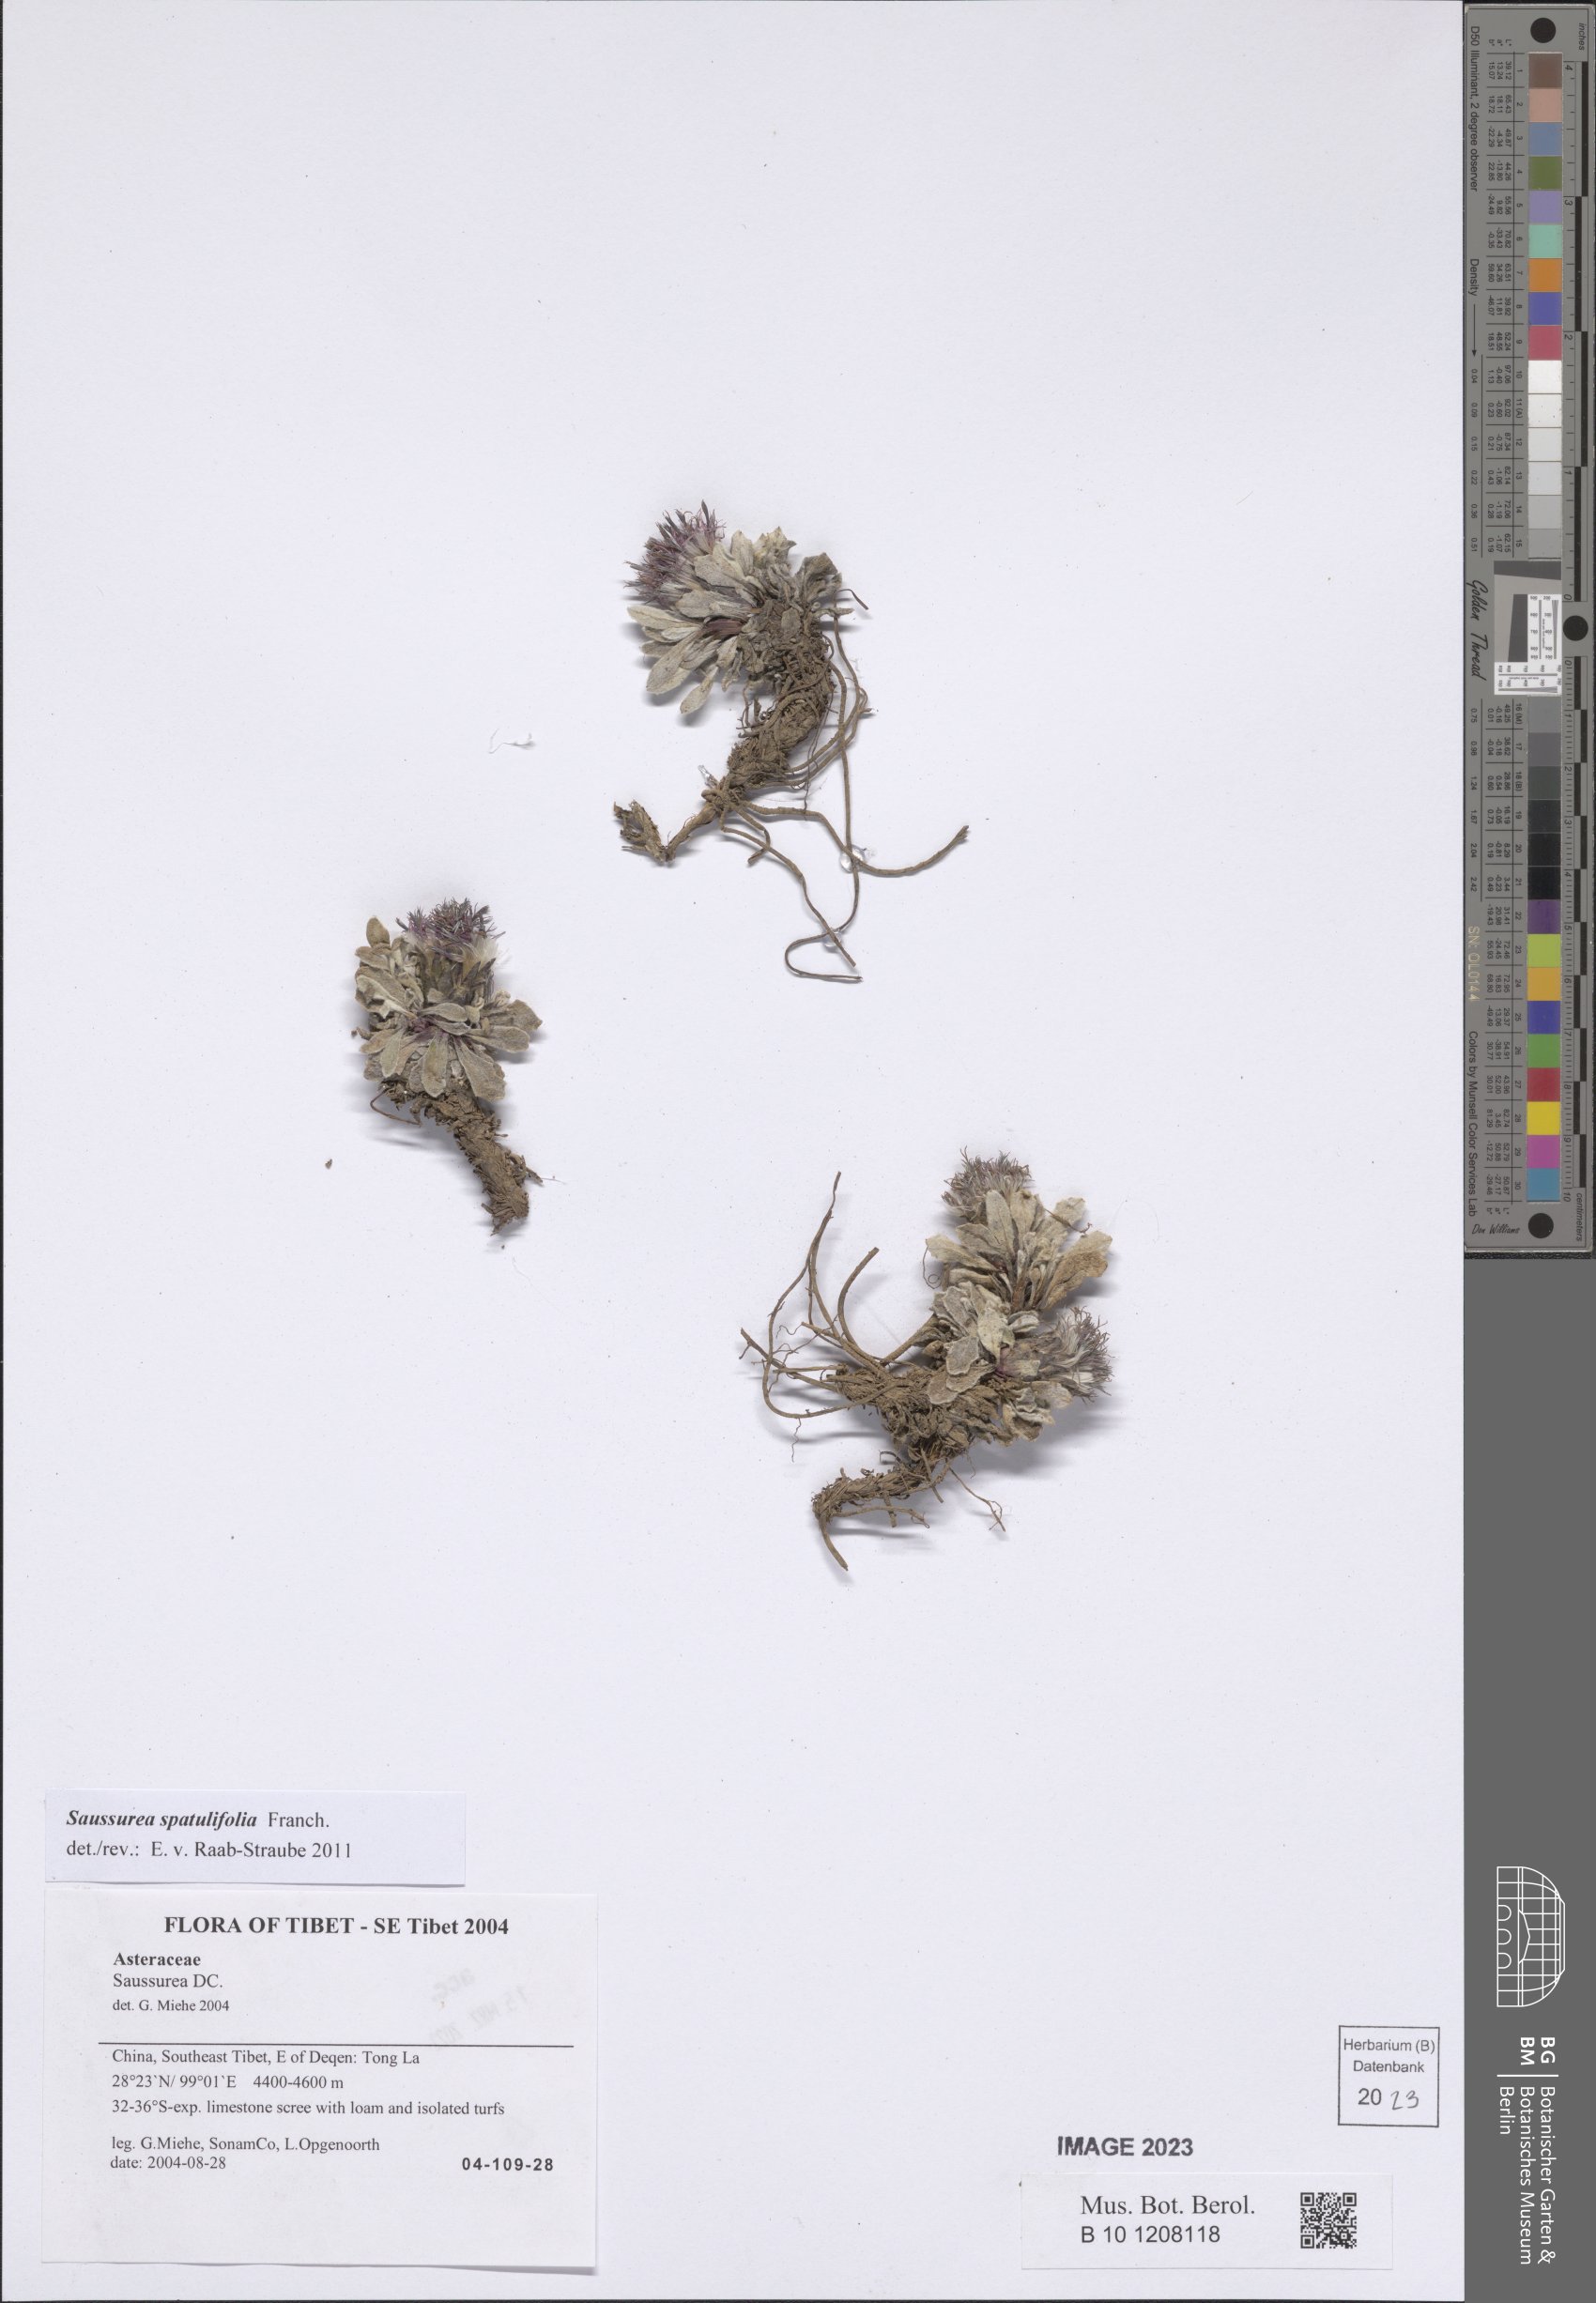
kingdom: Plantae
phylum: Tracheophyta
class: Magnoliopsida
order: Asterales
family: Asteraceae
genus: Saussurea
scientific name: Saussurea spatulifolia
